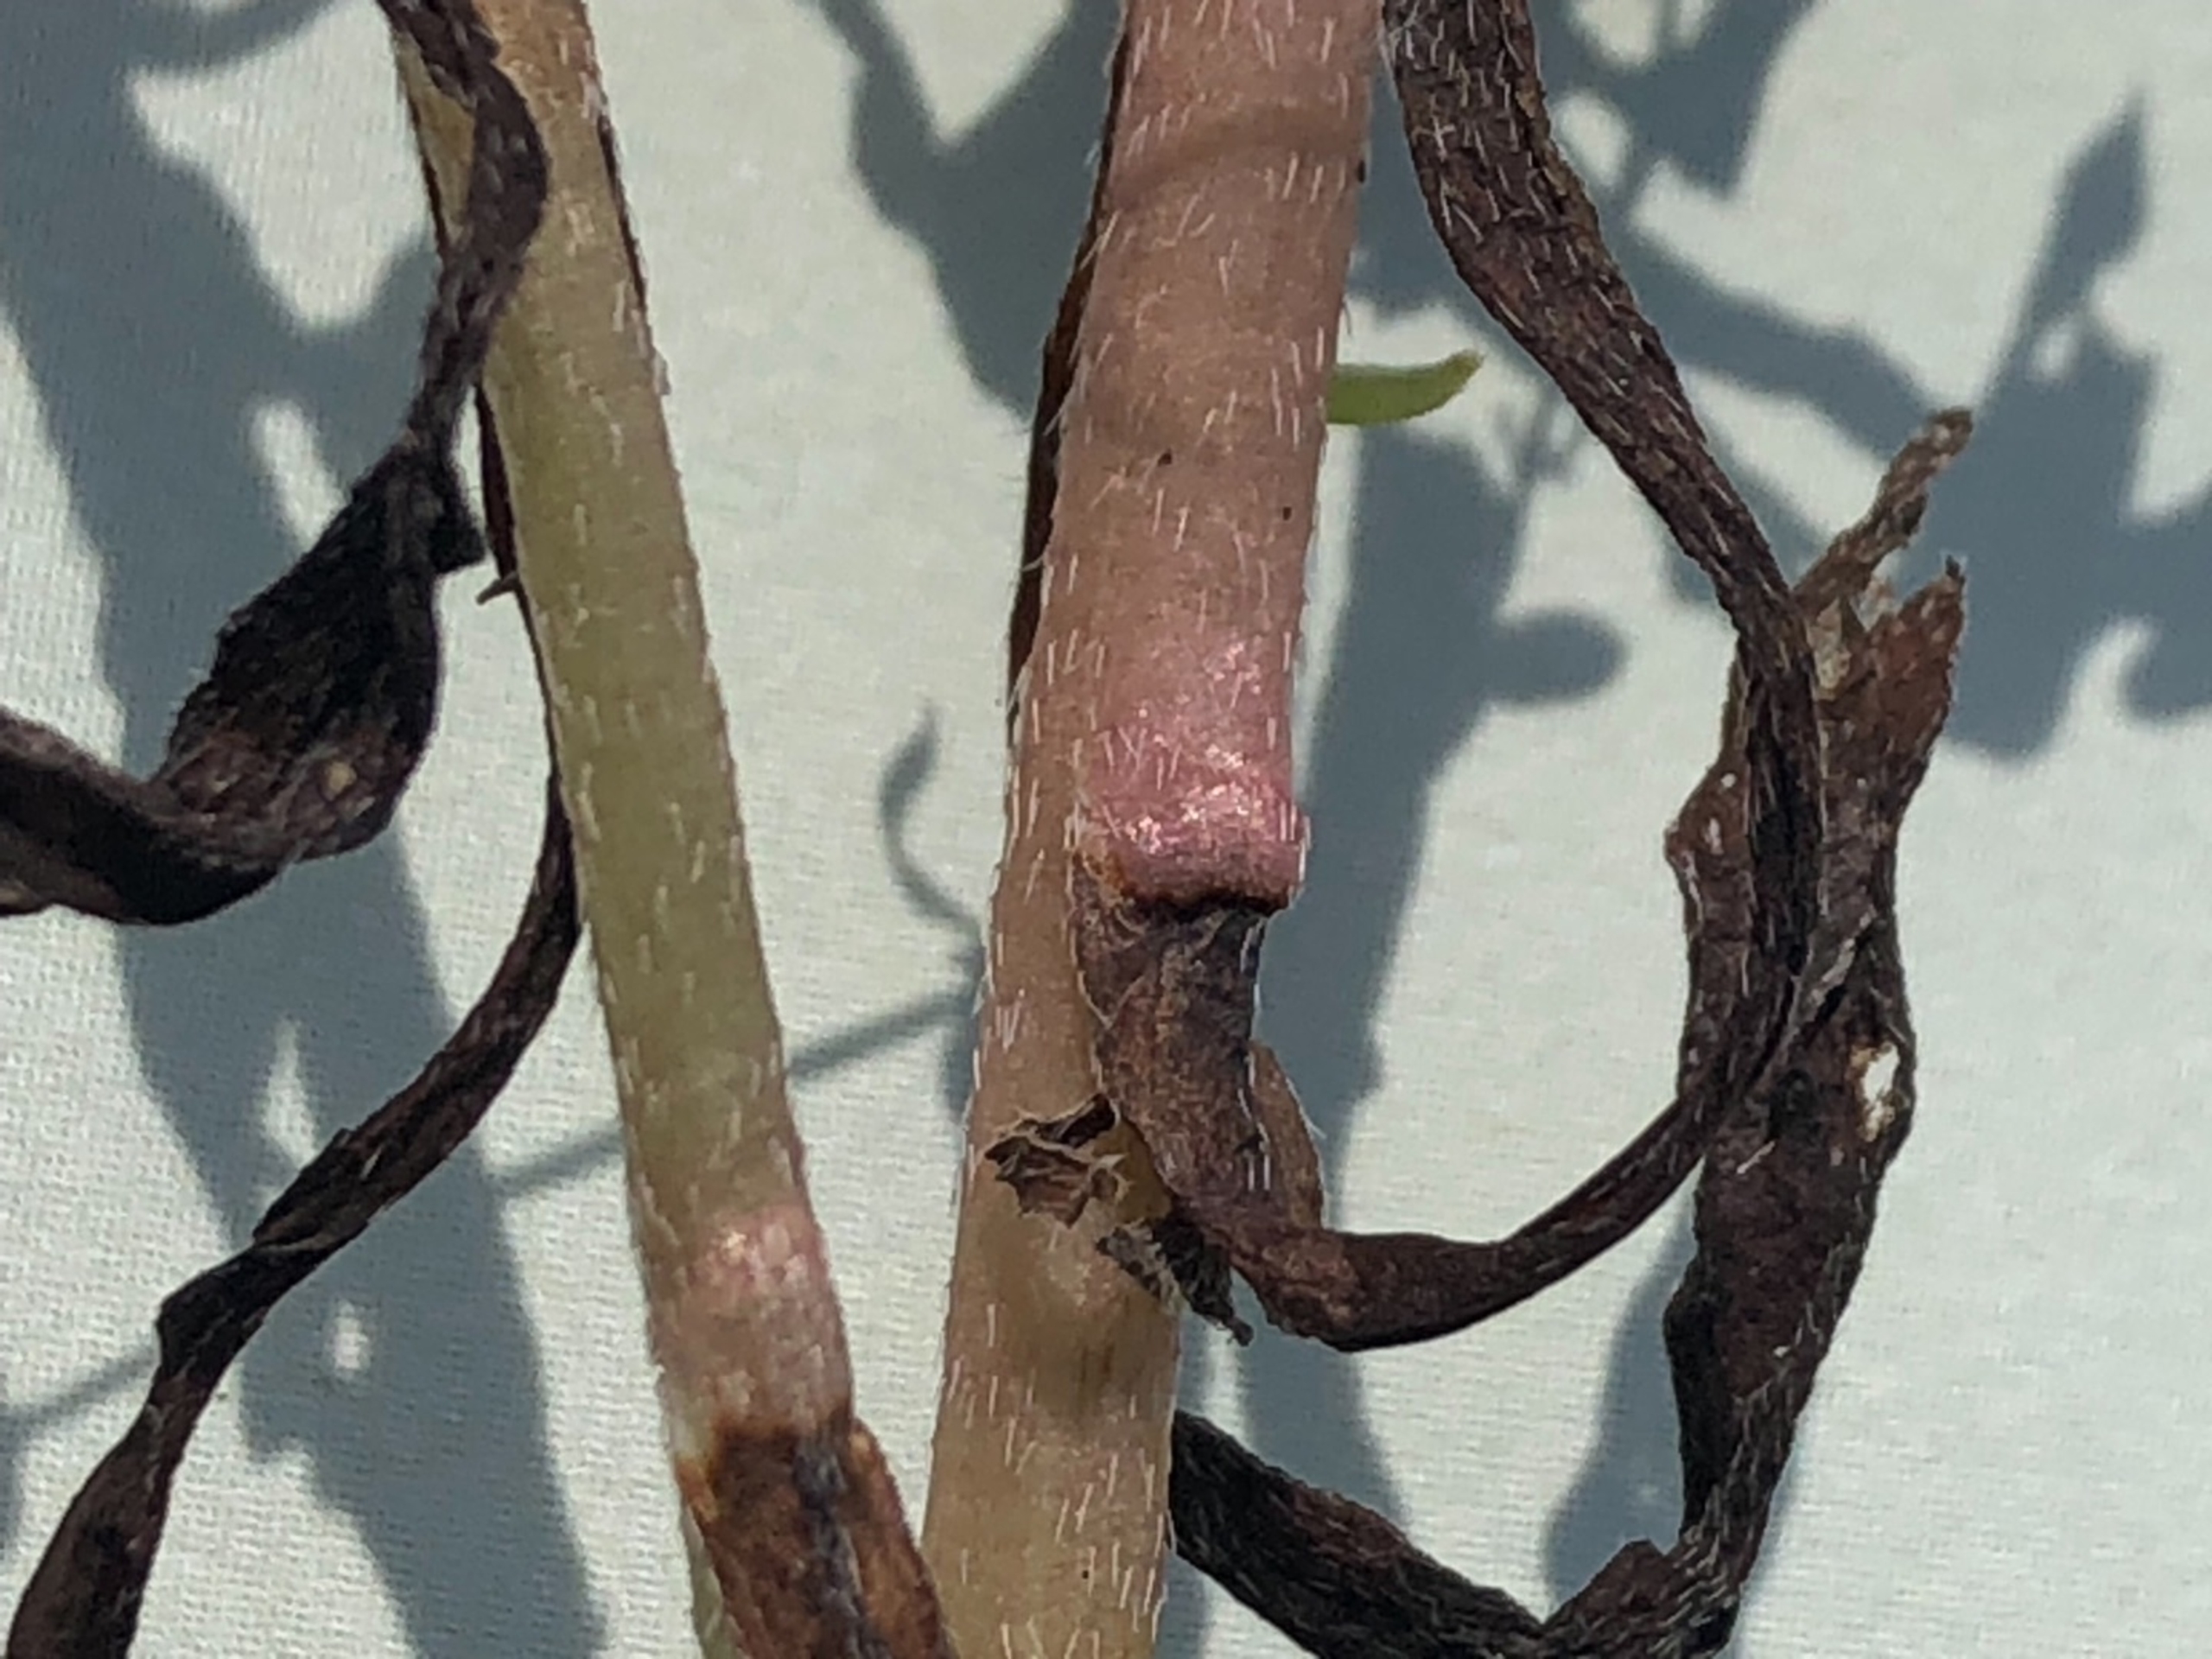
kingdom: Plantae
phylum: Tracheophyta
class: Magnoliopsida
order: Boraginales
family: Boraginaceae
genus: Myosotis
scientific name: Myosotis laxa
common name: Sump-forglemmigej
